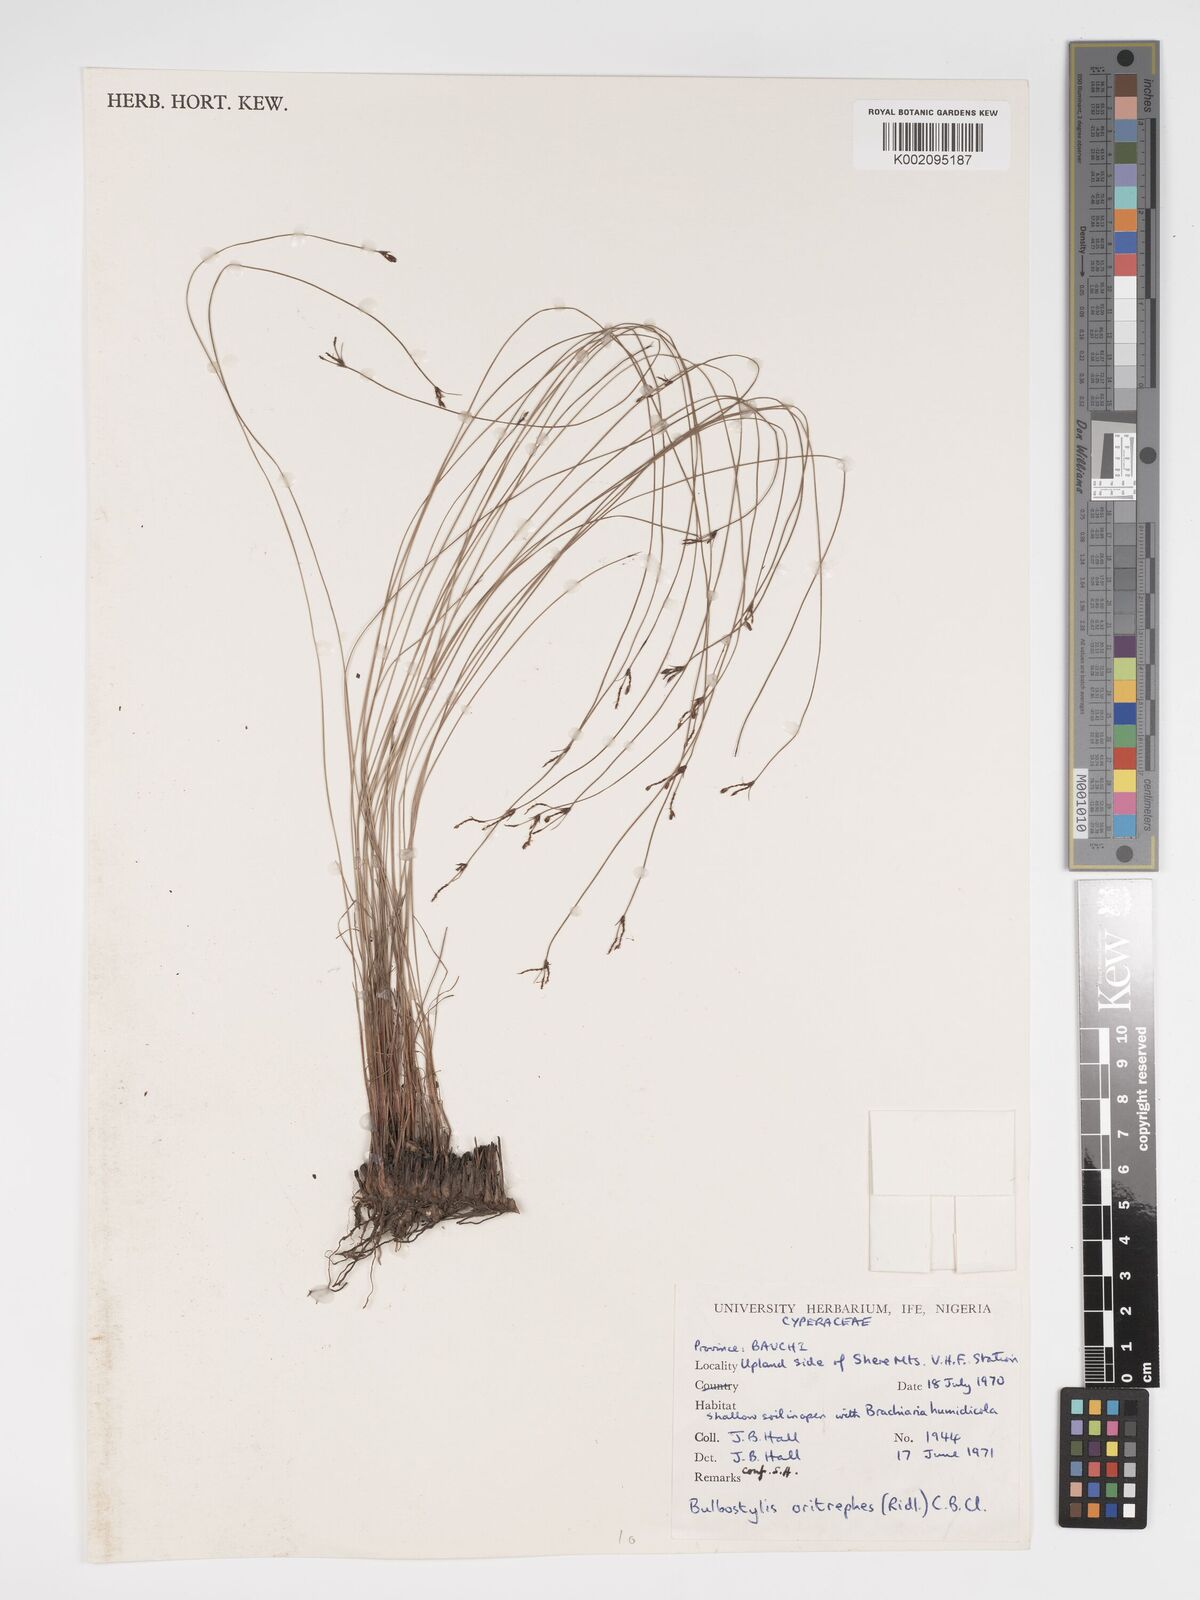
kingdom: Plantae
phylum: Tracheophyta
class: Liliopsida
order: Poales
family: Cyperaceae
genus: Bulbostylis
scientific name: Bulbostylis oritrephes
